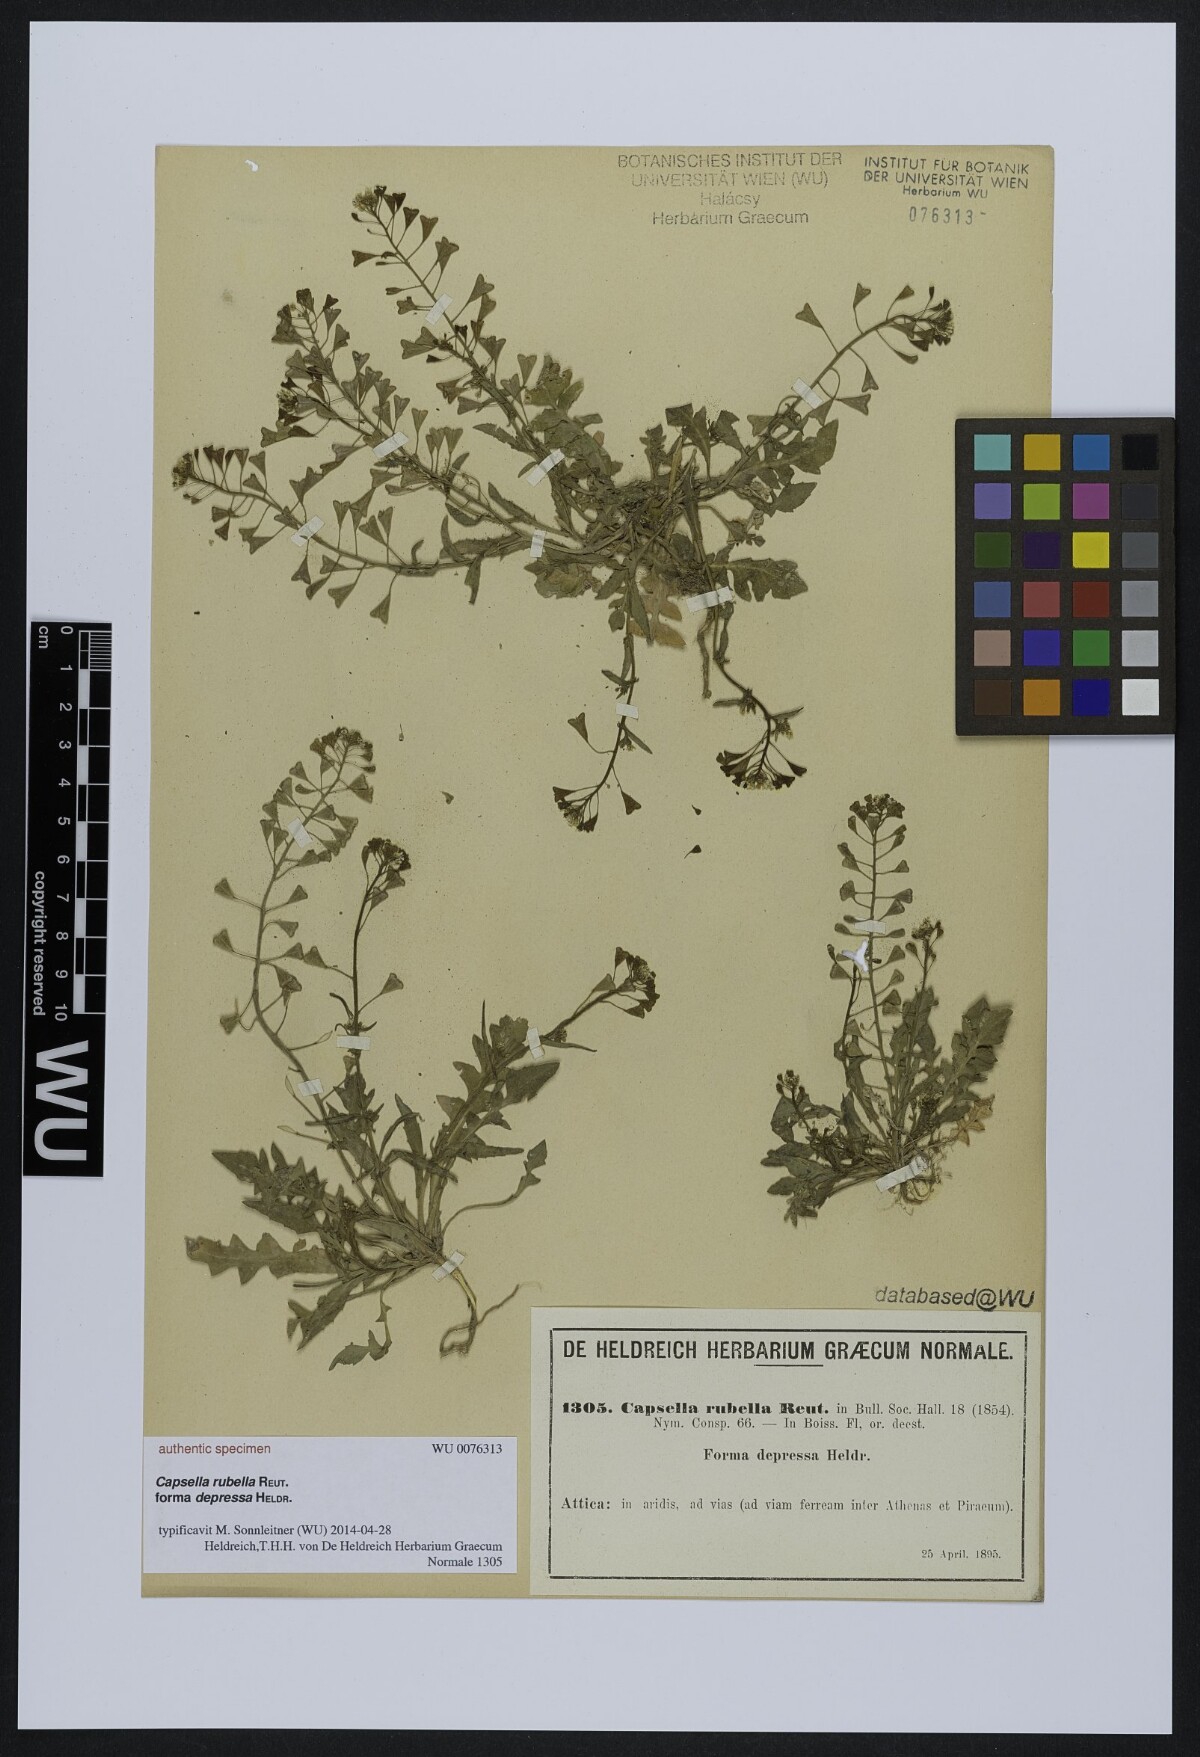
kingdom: Plantae
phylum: Tracheophyta
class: Magnoliopsida
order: Brassicales
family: Brassicaceae
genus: Capsella
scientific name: Capsella rubella
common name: Pink shepherd's-purse
